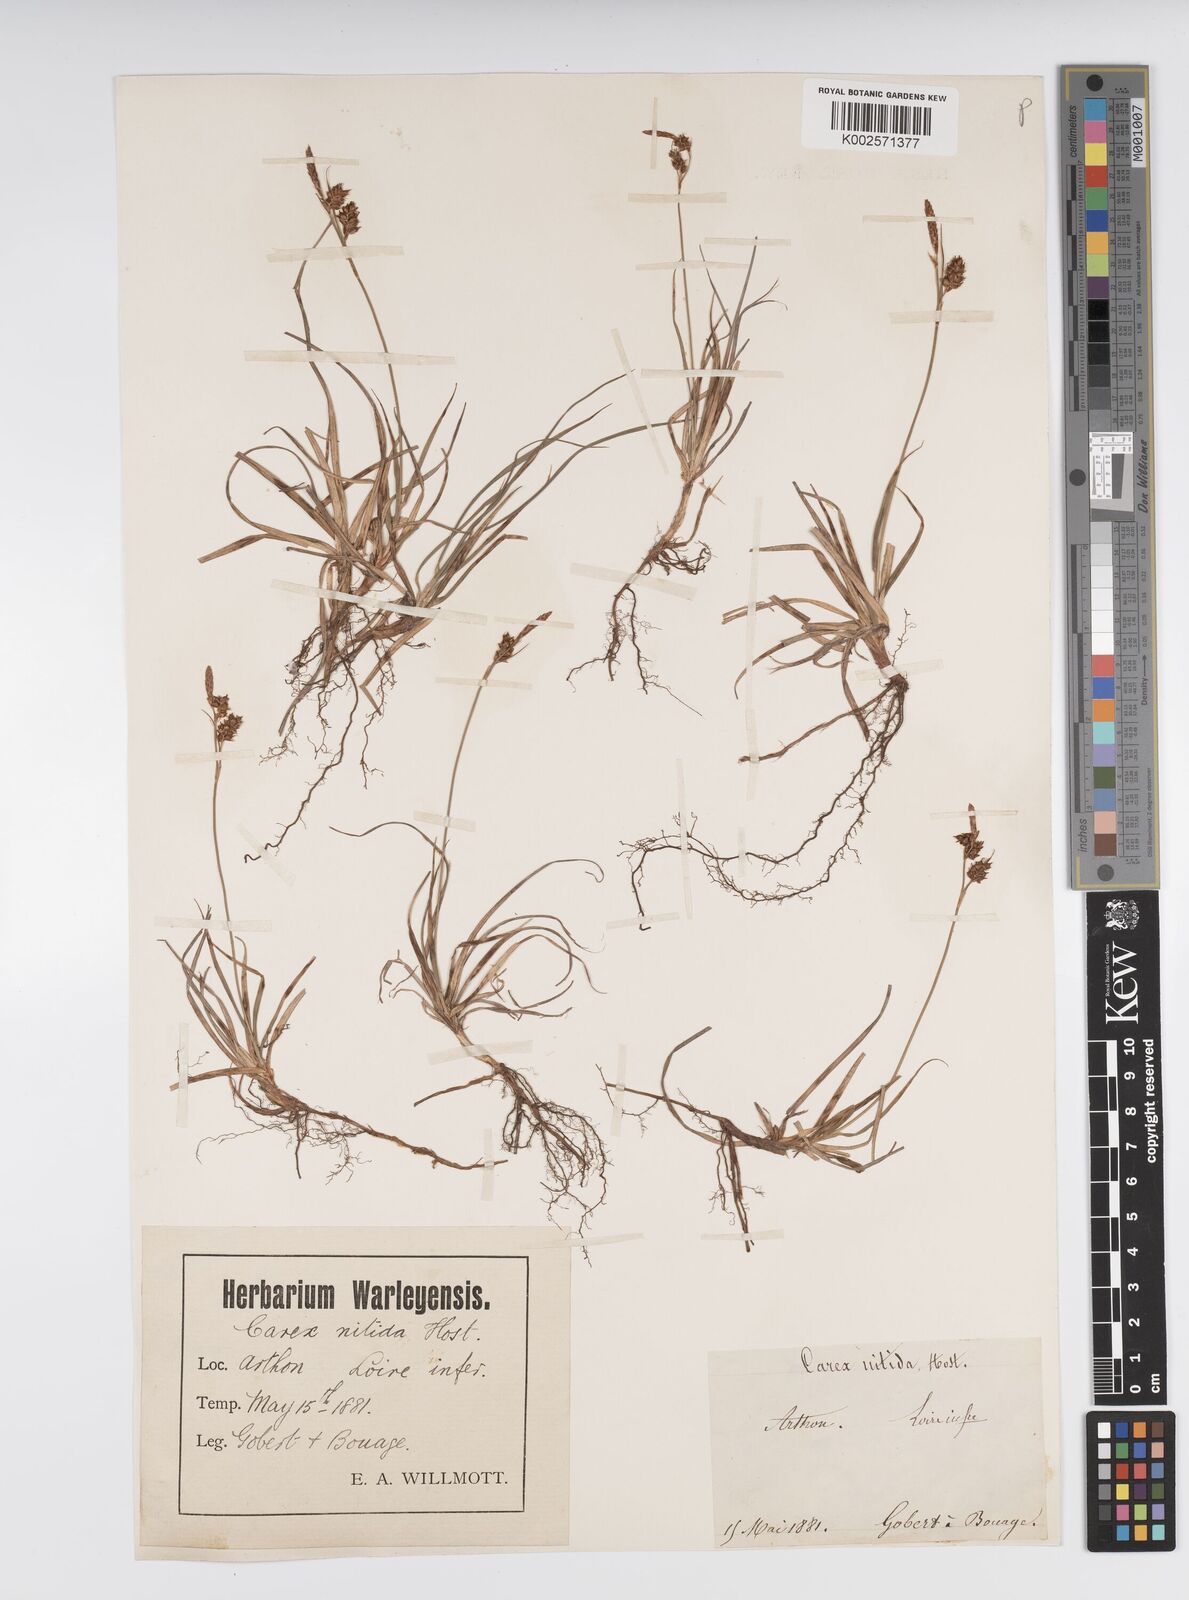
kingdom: Plantae
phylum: Tracheophyta
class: Liliopsida
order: Poales
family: Cyperaceae
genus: Carex
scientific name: Carex liparocarpos
